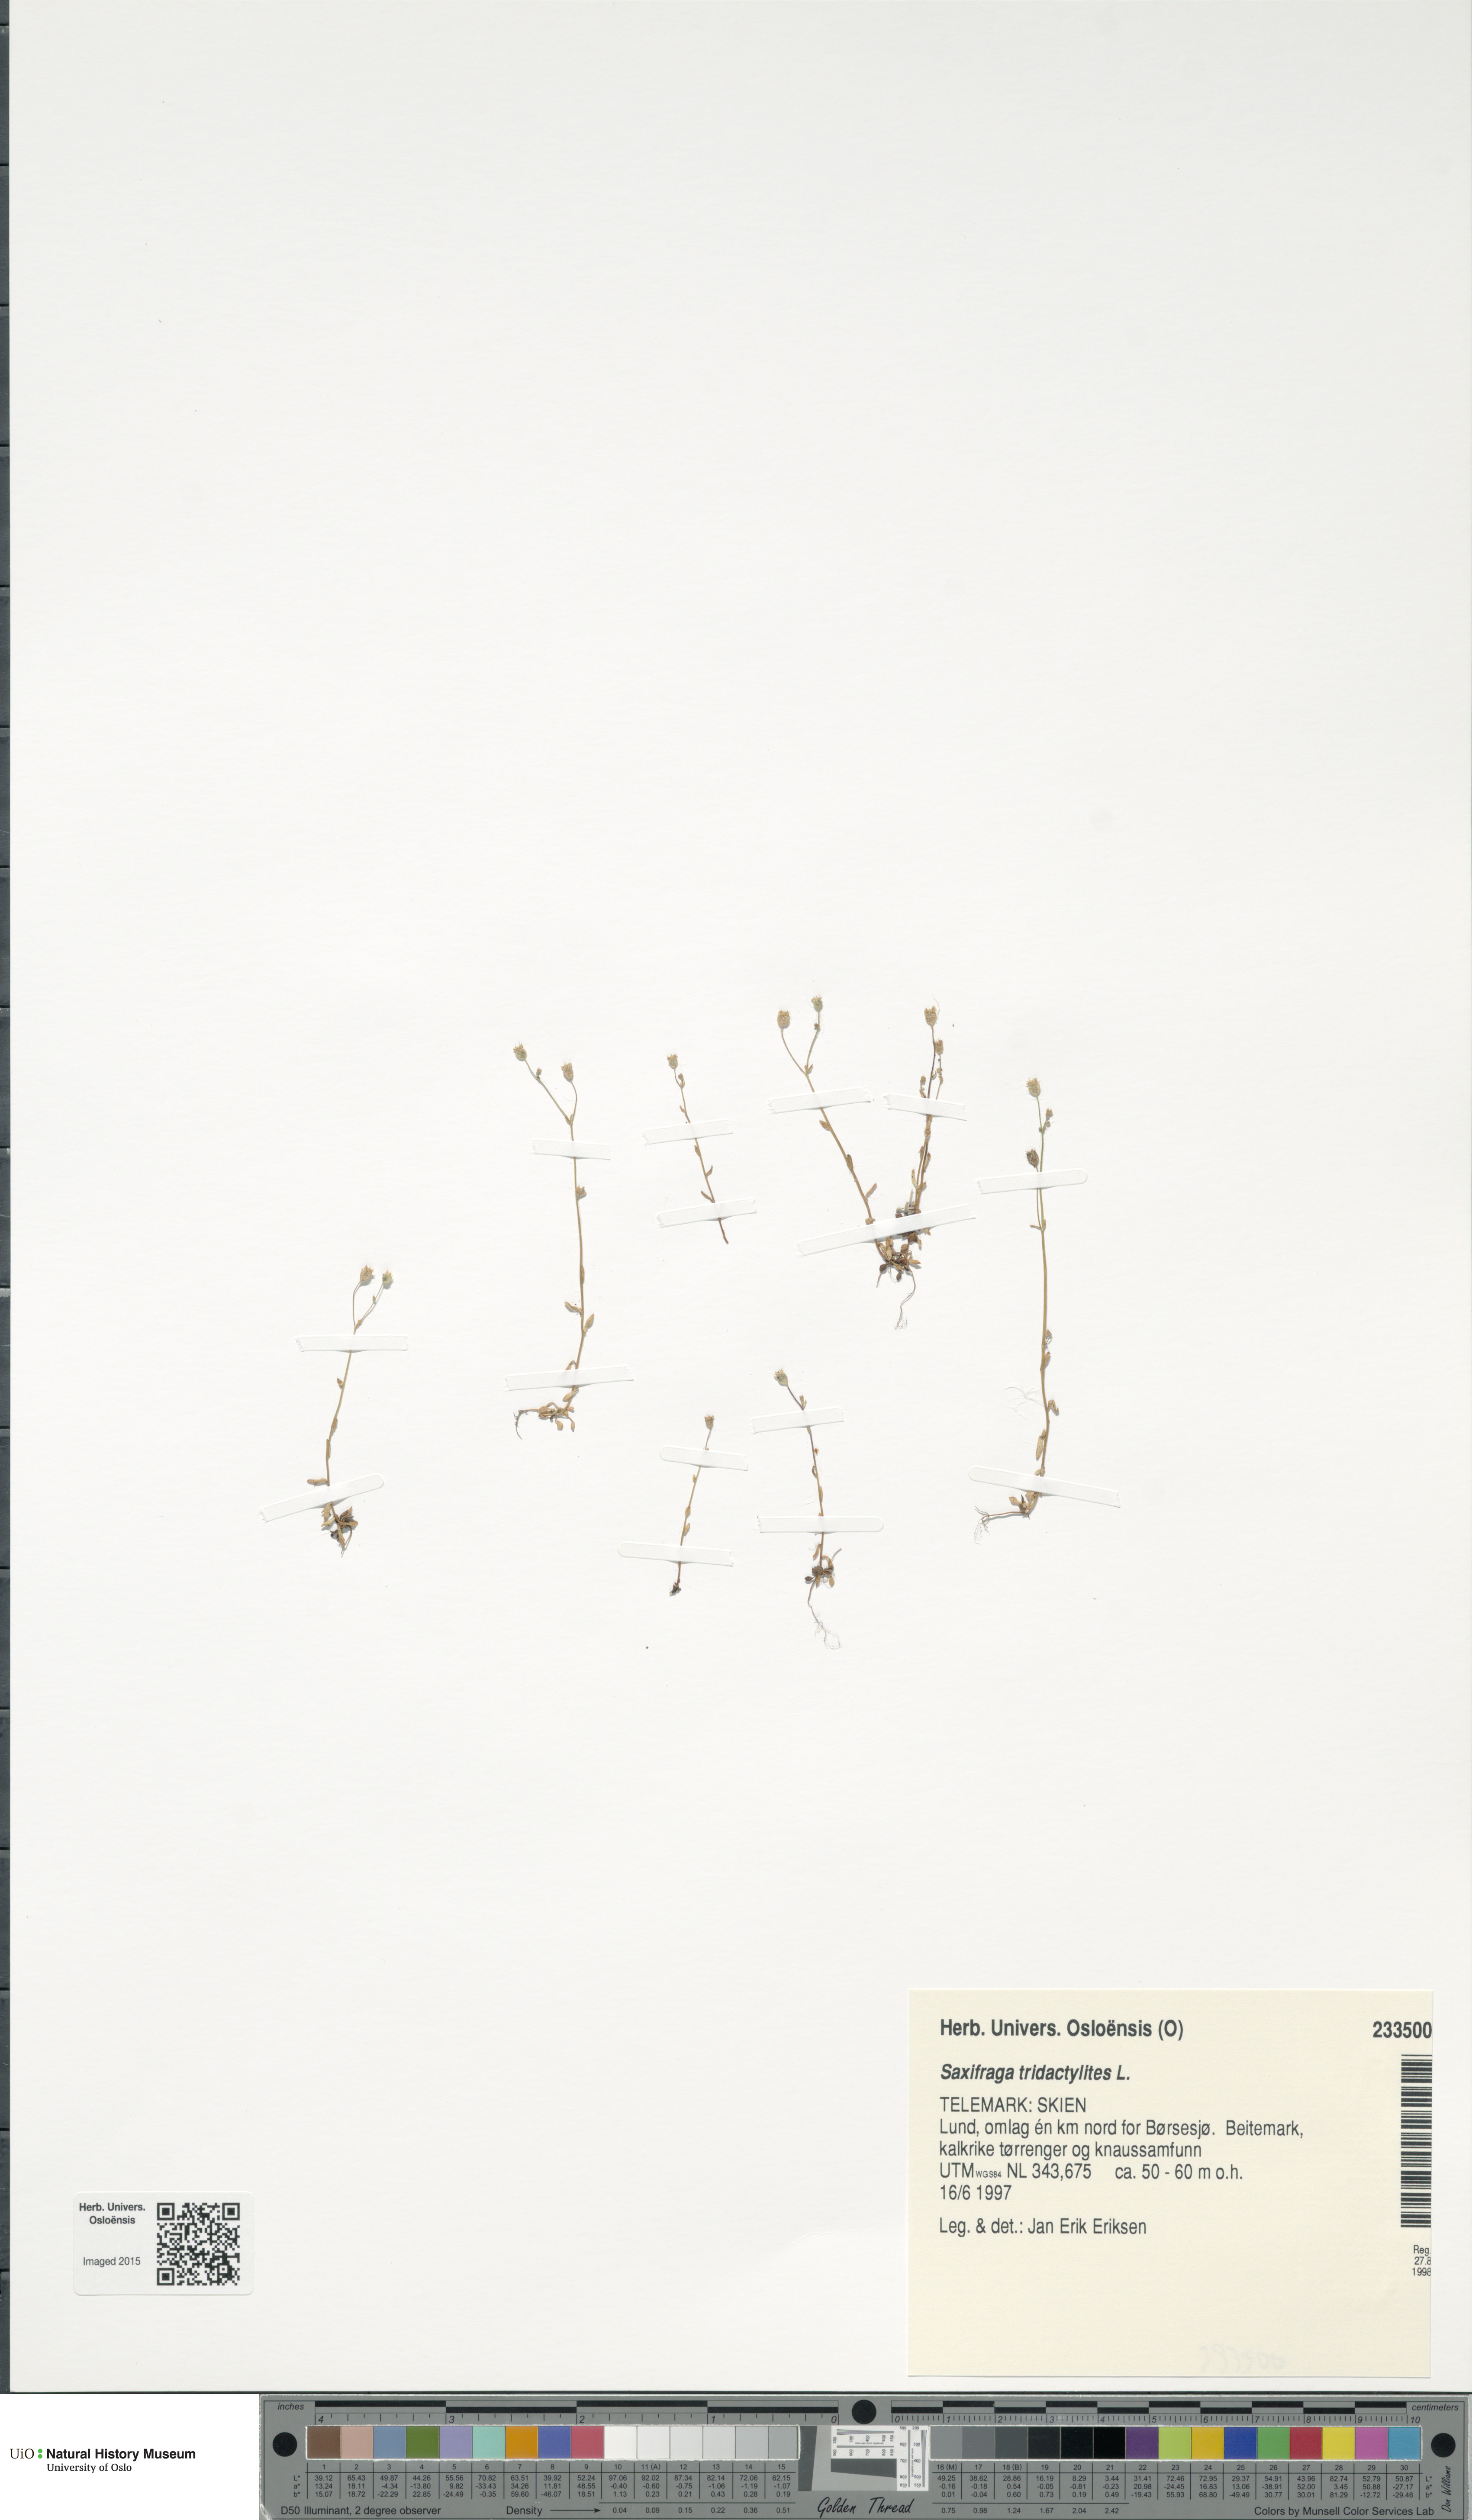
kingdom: Plantae
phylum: Tracheophyta
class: Magnoliopsida
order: Saxifragales
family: Saxifragaceae
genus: Saxifraga
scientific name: Saxifraga tridactylites
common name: Rue-leaved saxifrage
